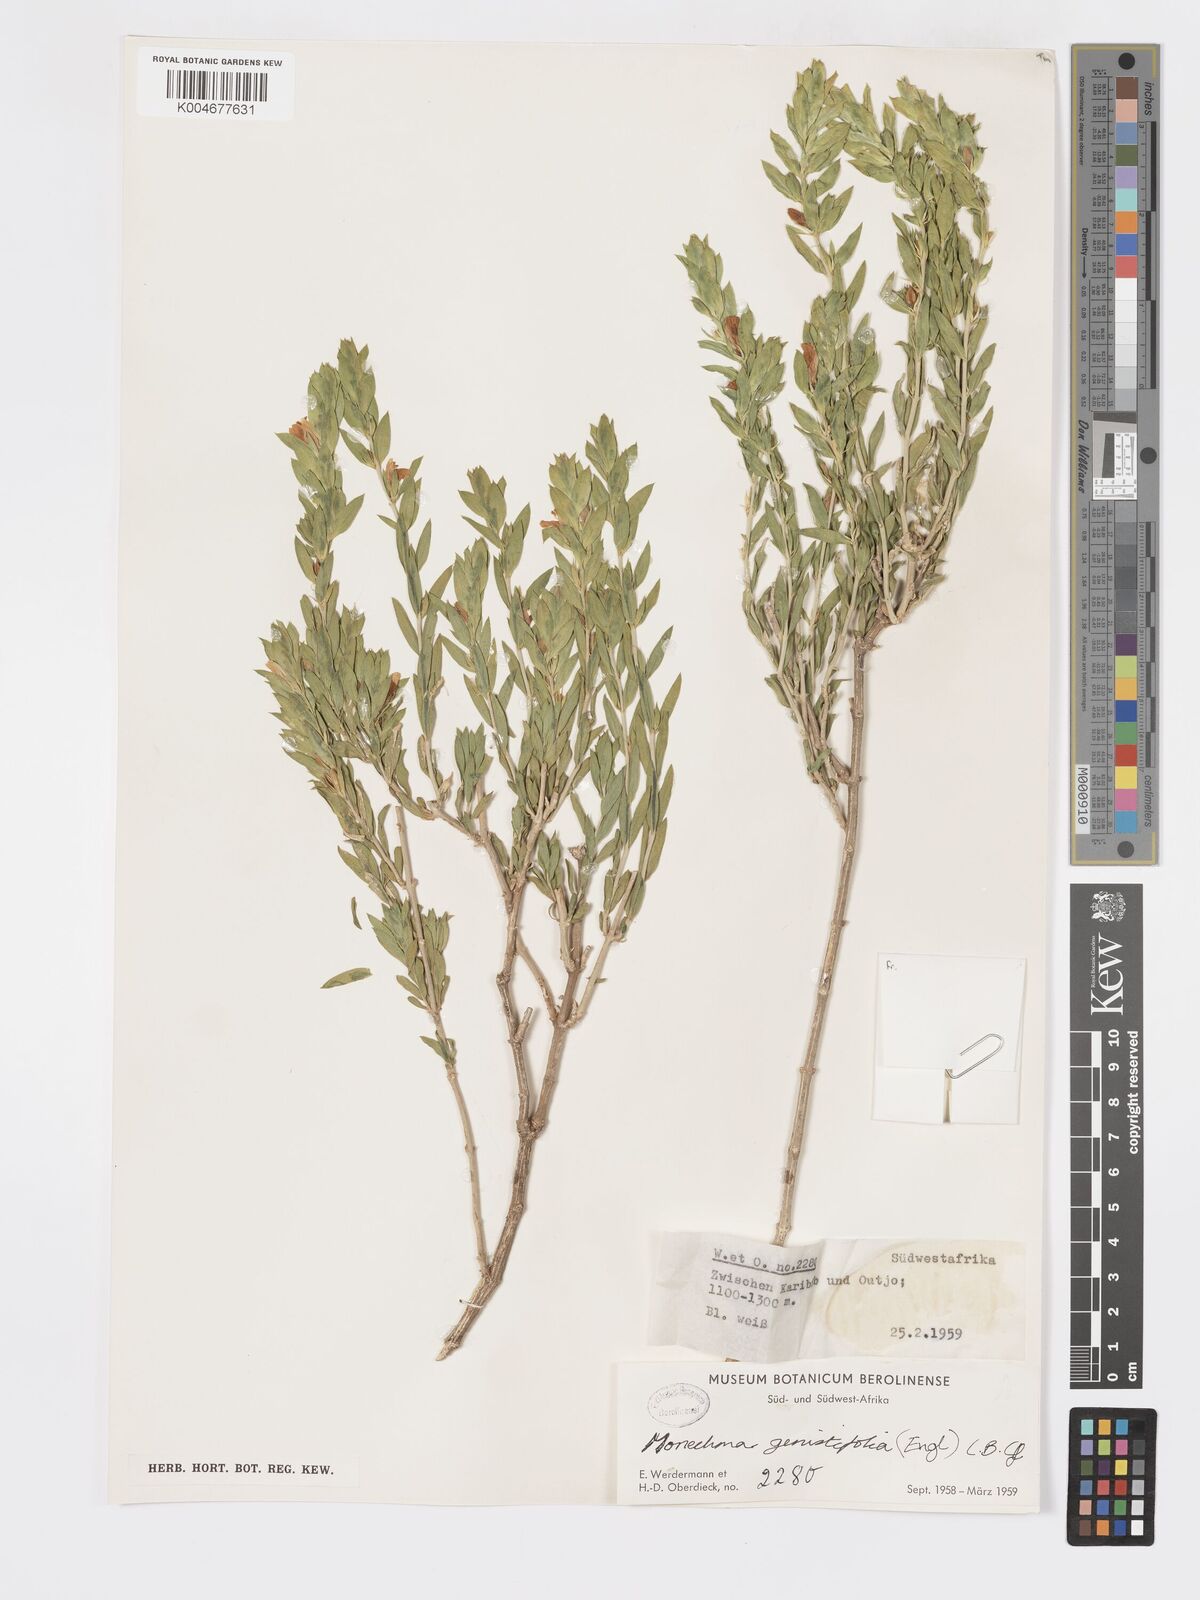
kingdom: Plantae
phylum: Tracheophyta
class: Magnoliopsida
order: Lamiales
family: Acanthaceae
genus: Pogonospermum
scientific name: Pogonospermum
